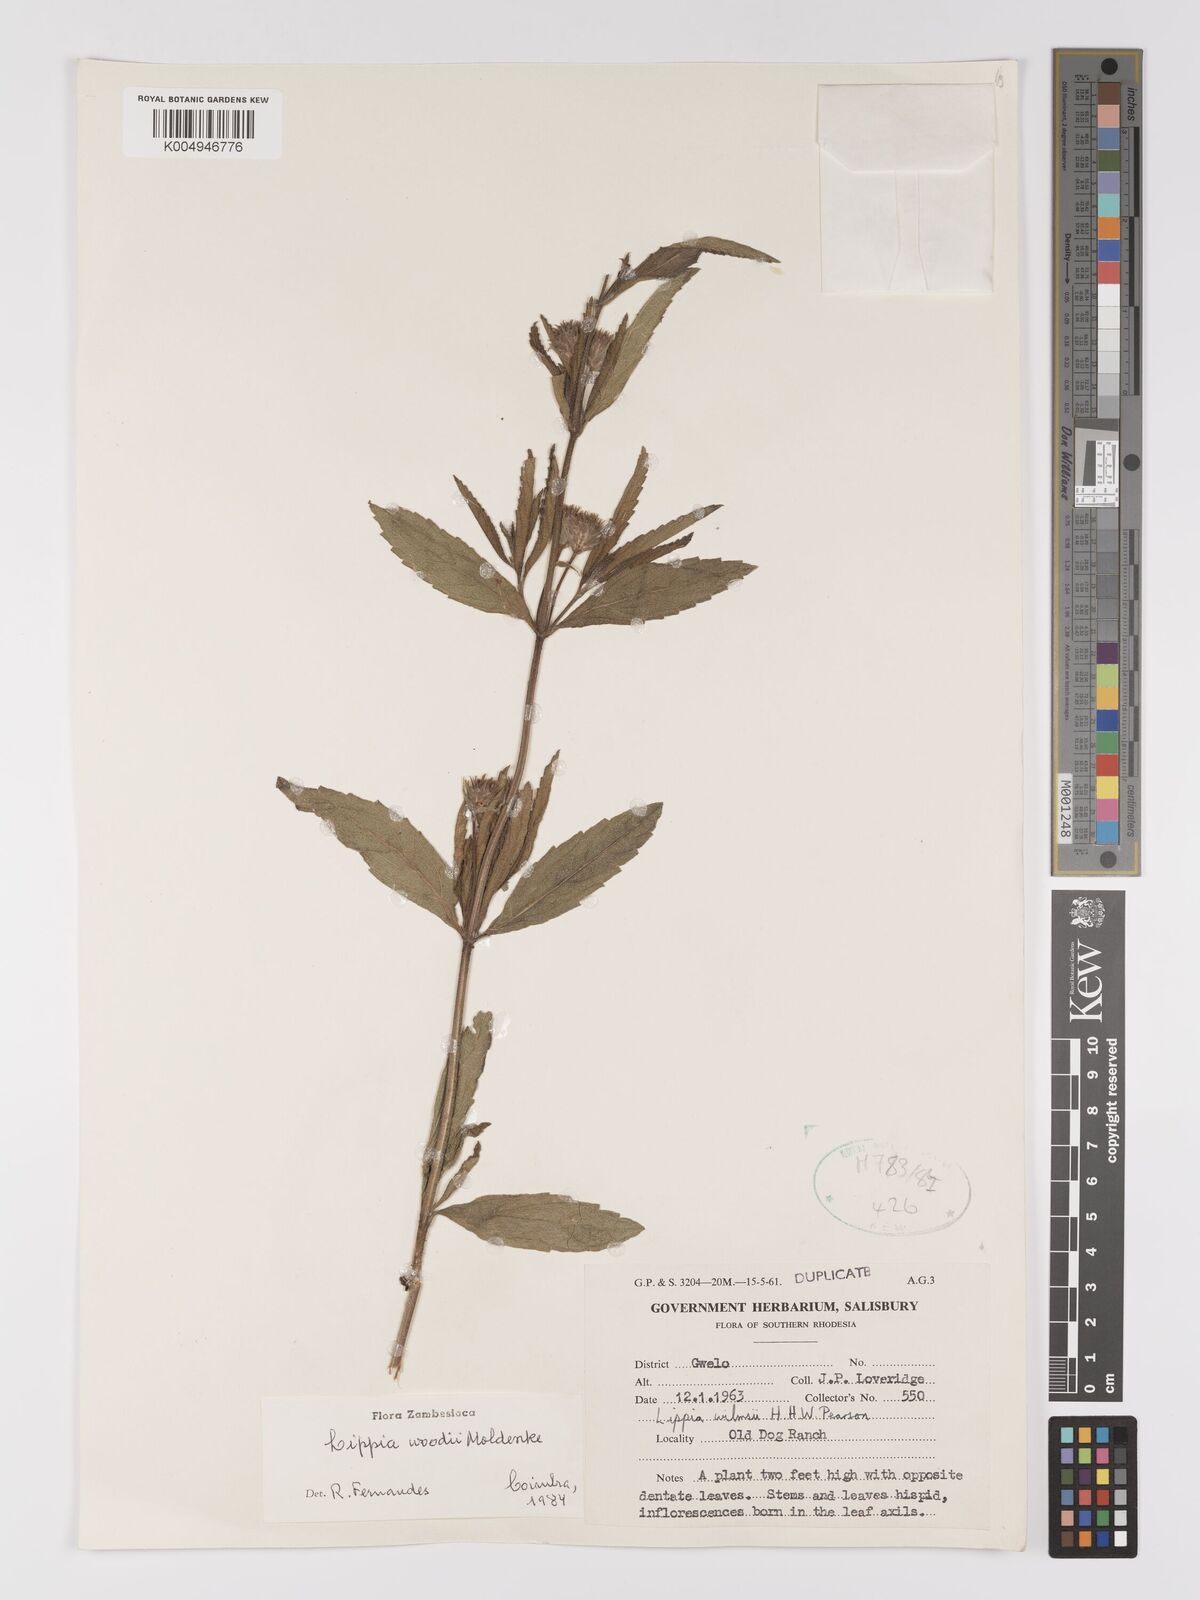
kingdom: Plantae
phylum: Tracheophyta
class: Magnoliopsida
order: Lamiales
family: Verbenaceae
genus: Lippia
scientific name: Lippia woodii
